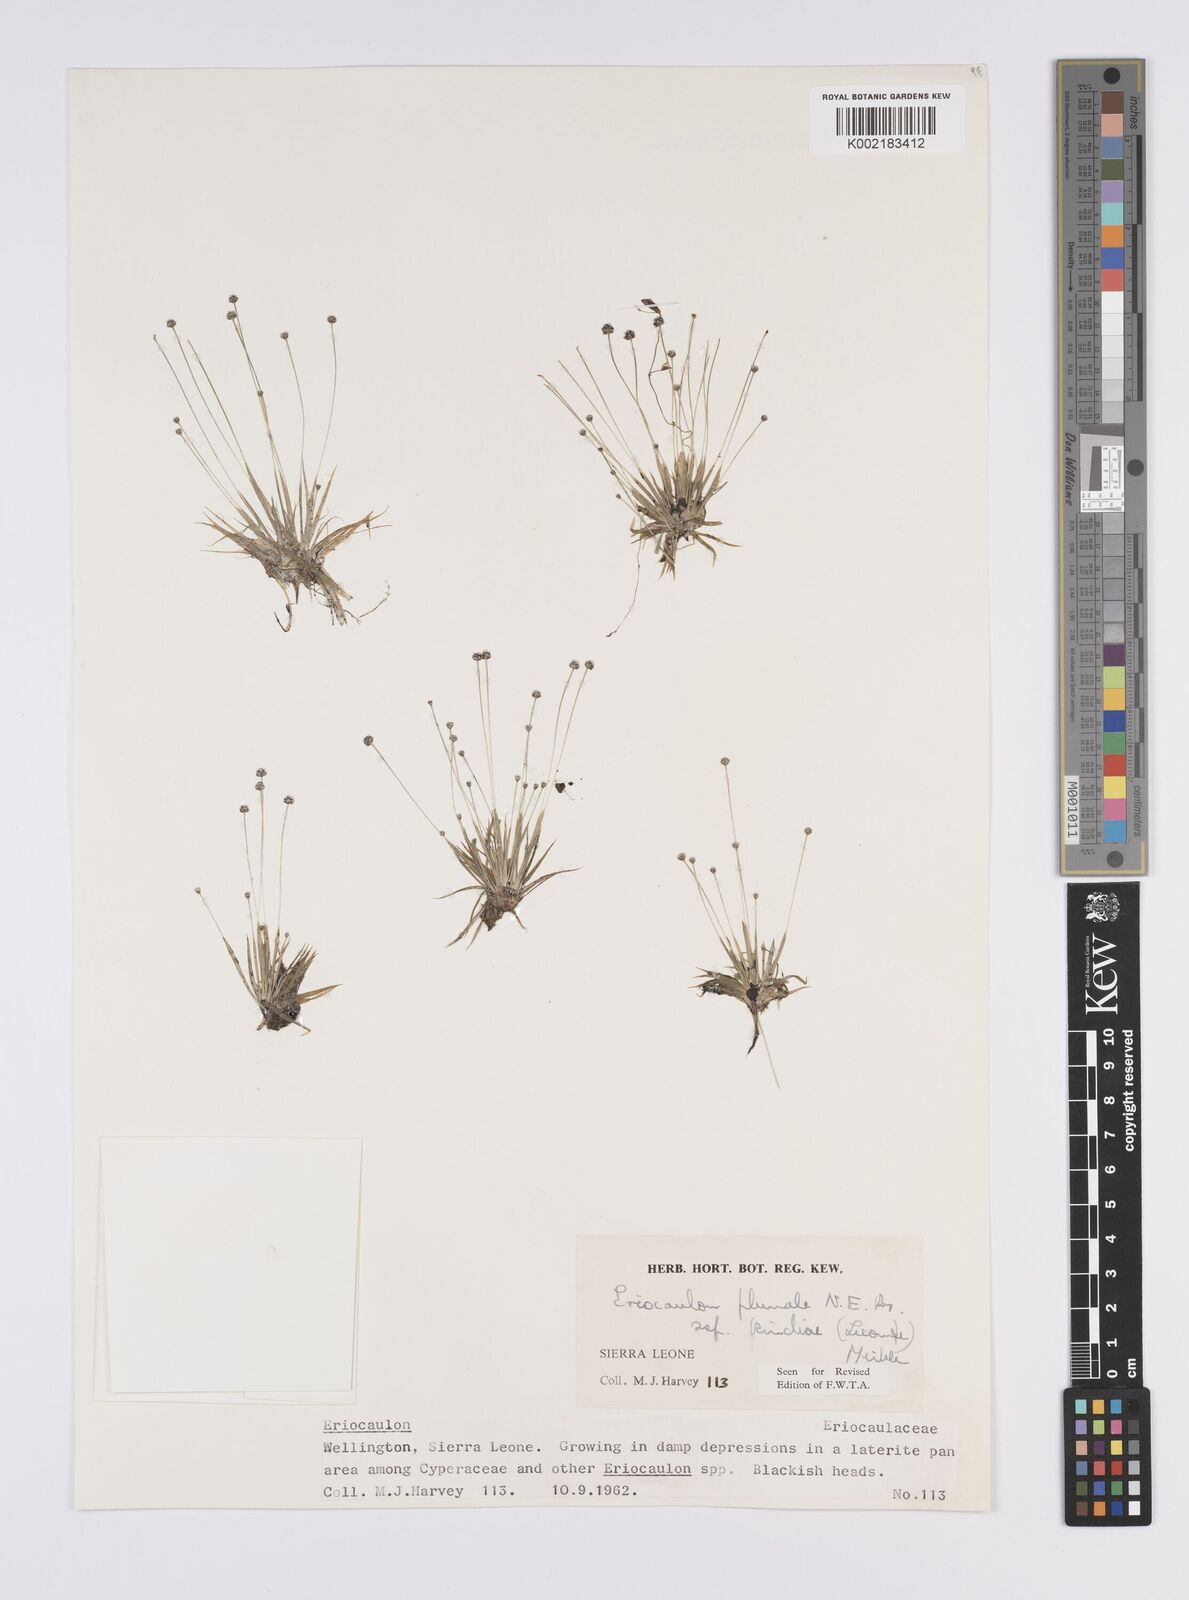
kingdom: Plantae
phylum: Tracheophyta
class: Liliopsida
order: Poales
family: Eriocaulaceae
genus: Eriocaulon
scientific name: Eriocaulon plumale
